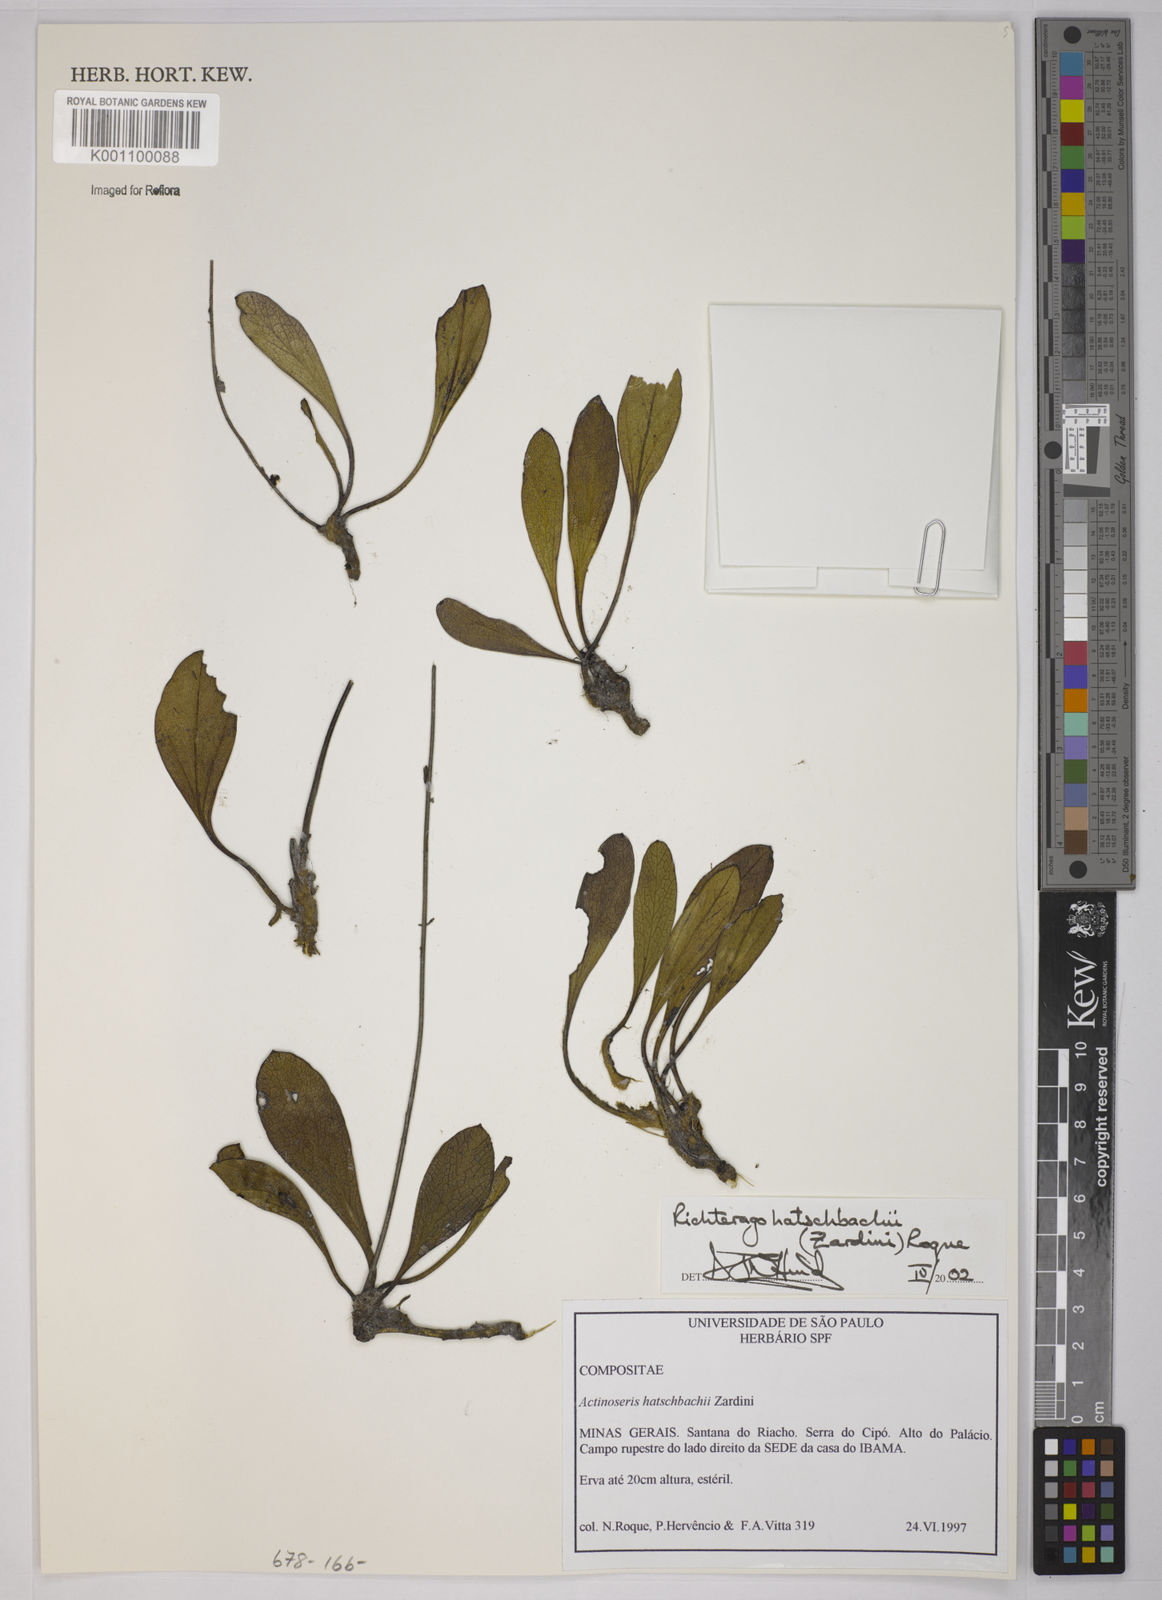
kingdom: Plantae
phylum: Tracheophyta
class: Magnoliopsida
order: Asterales
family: Asteraceae
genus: Richterago
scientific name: Richterago hatschbachii
